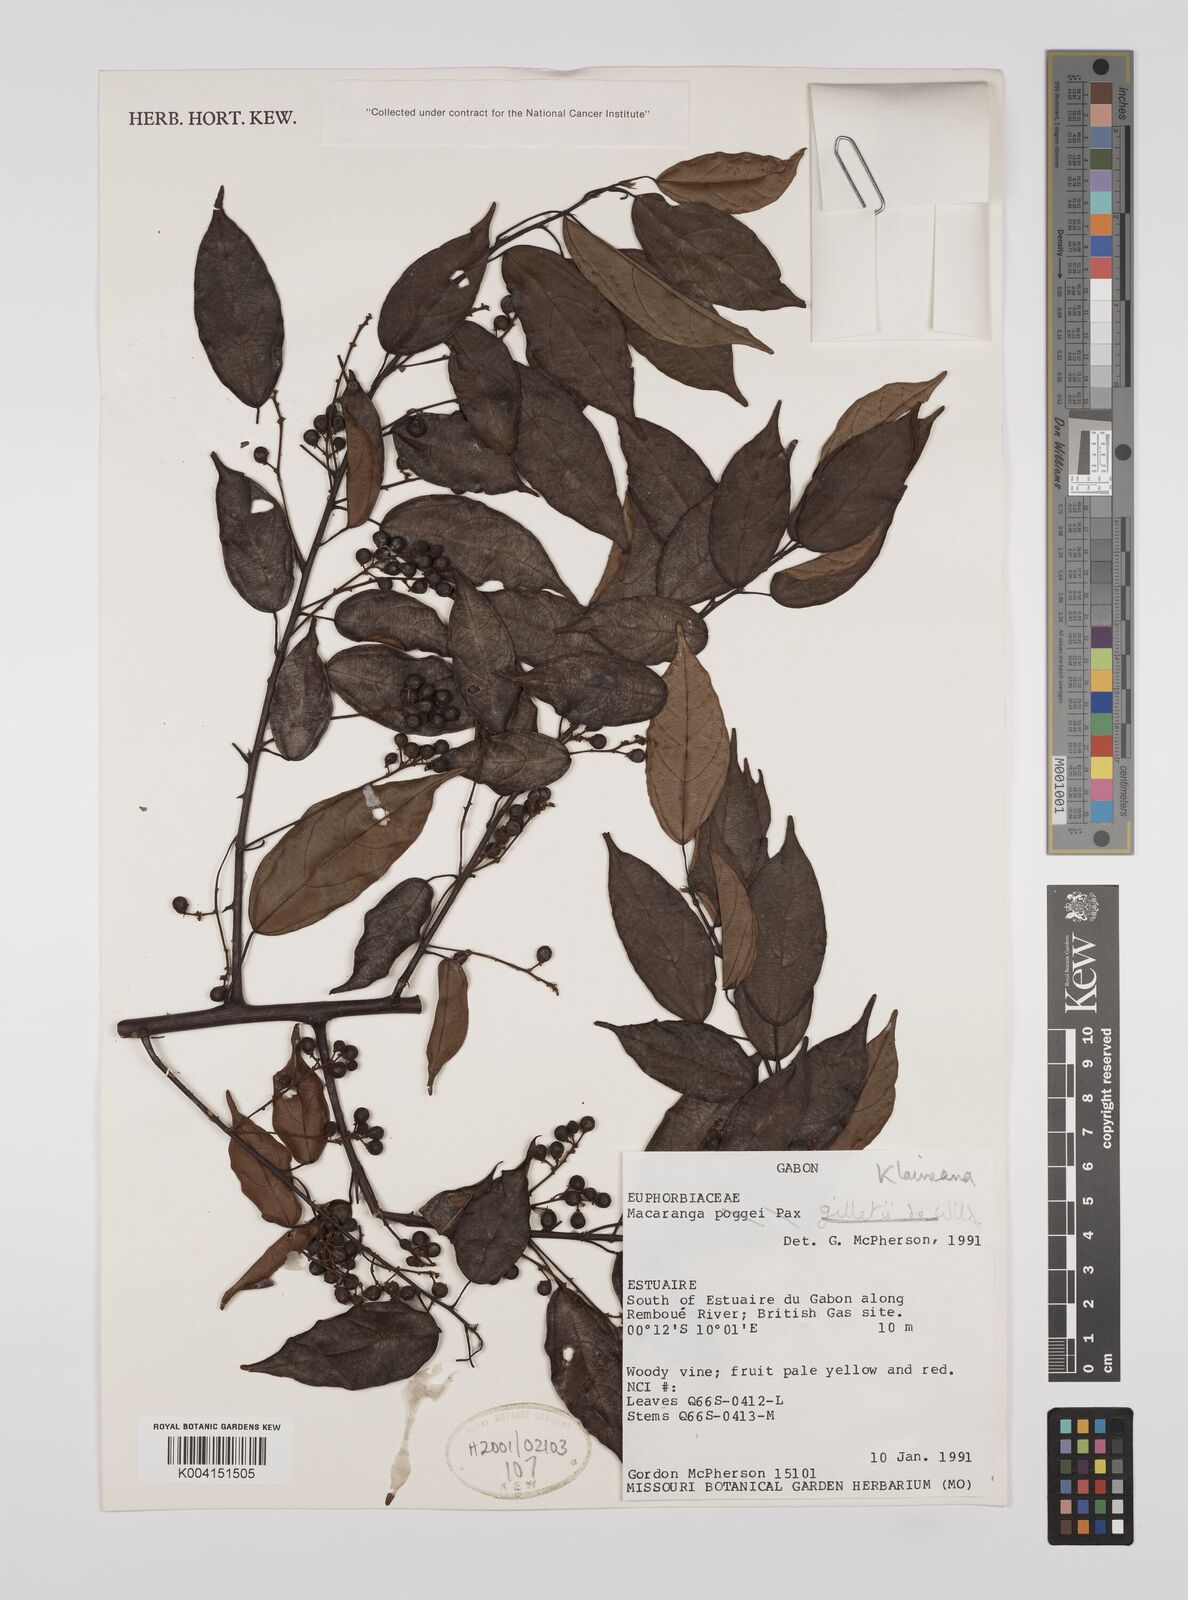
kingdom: Plantae
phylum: Tracheophyta
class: Magnoliopsida
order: Malpighiales
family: Euphorbiaceae
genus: Macaranga
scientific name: Macaranga klaineana
